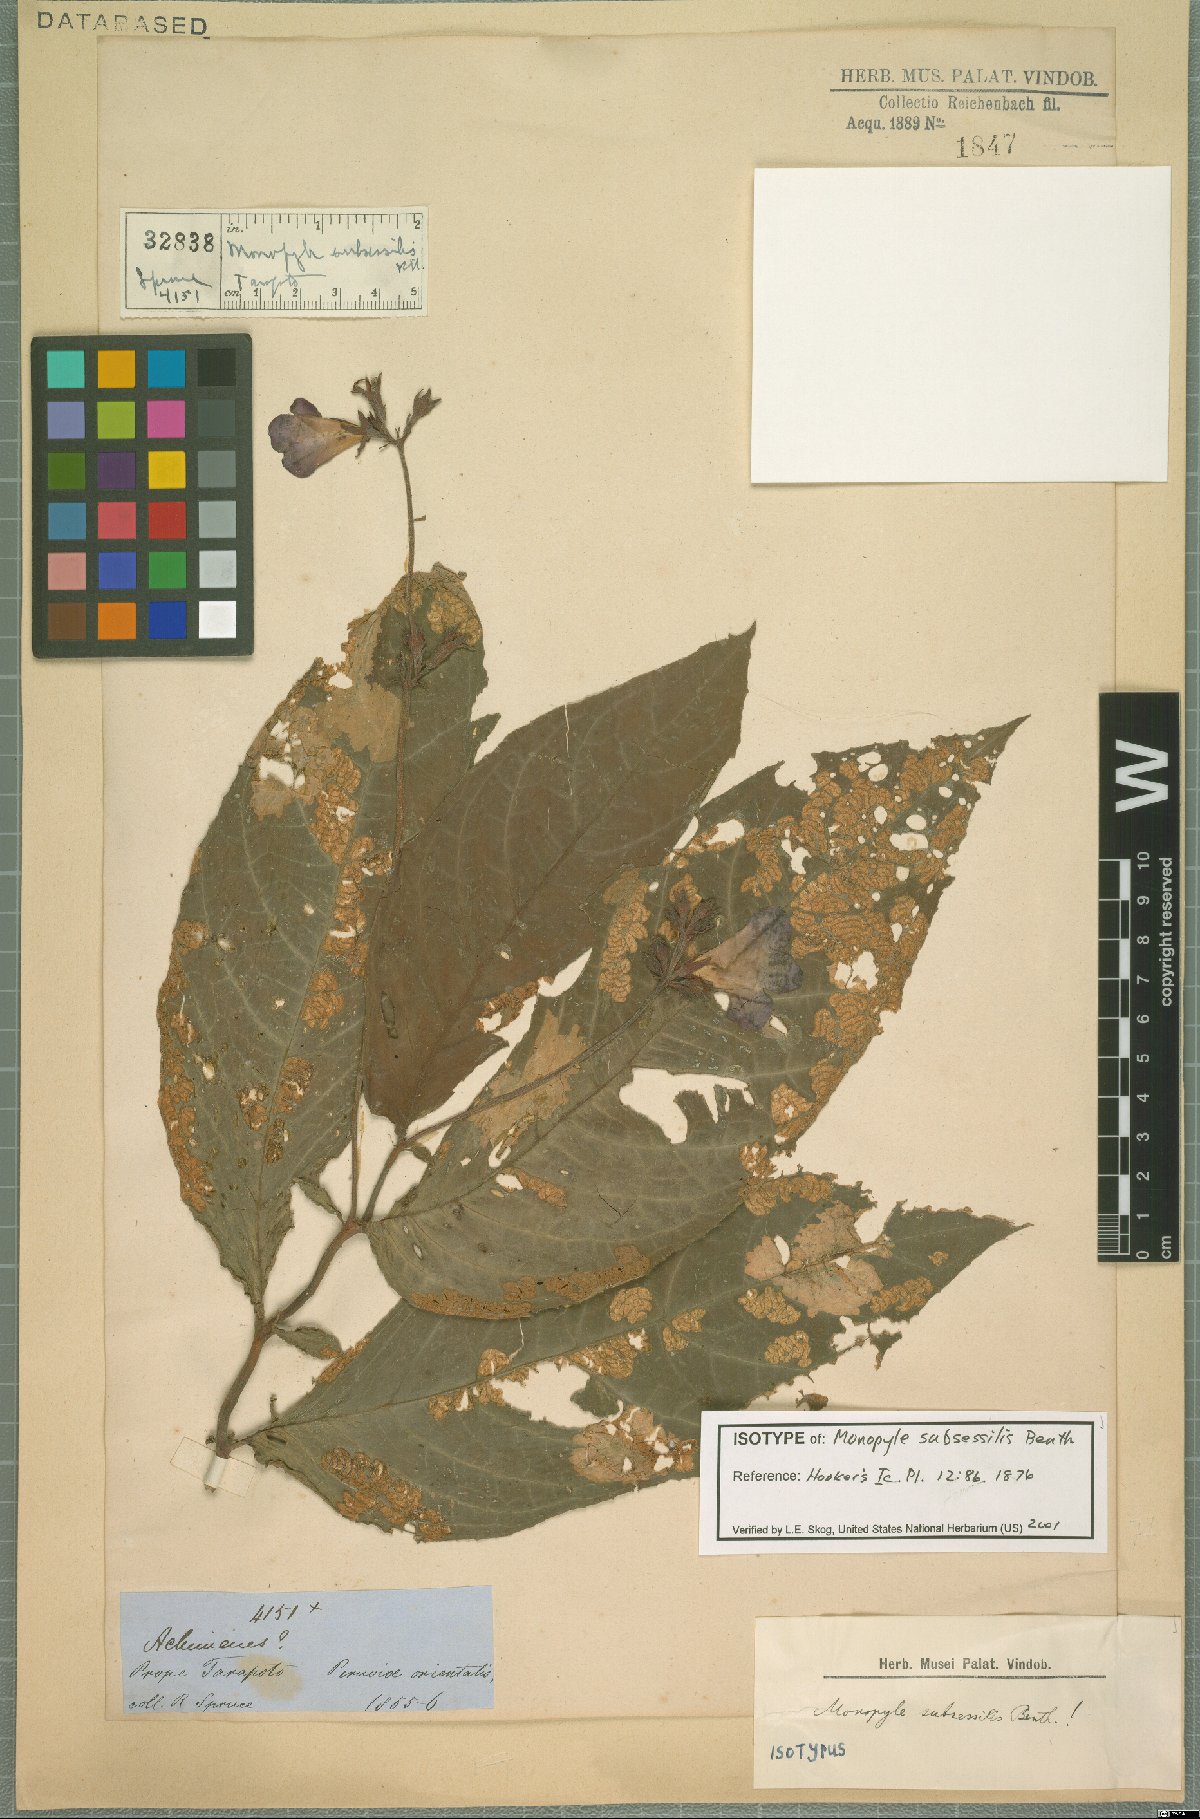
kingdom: Plantae
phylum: Tracheophyta
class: Magnoliopsida
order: Lamiales
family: Gesneriaceae
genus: Monopyle
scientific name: Monopyle subsessilis
